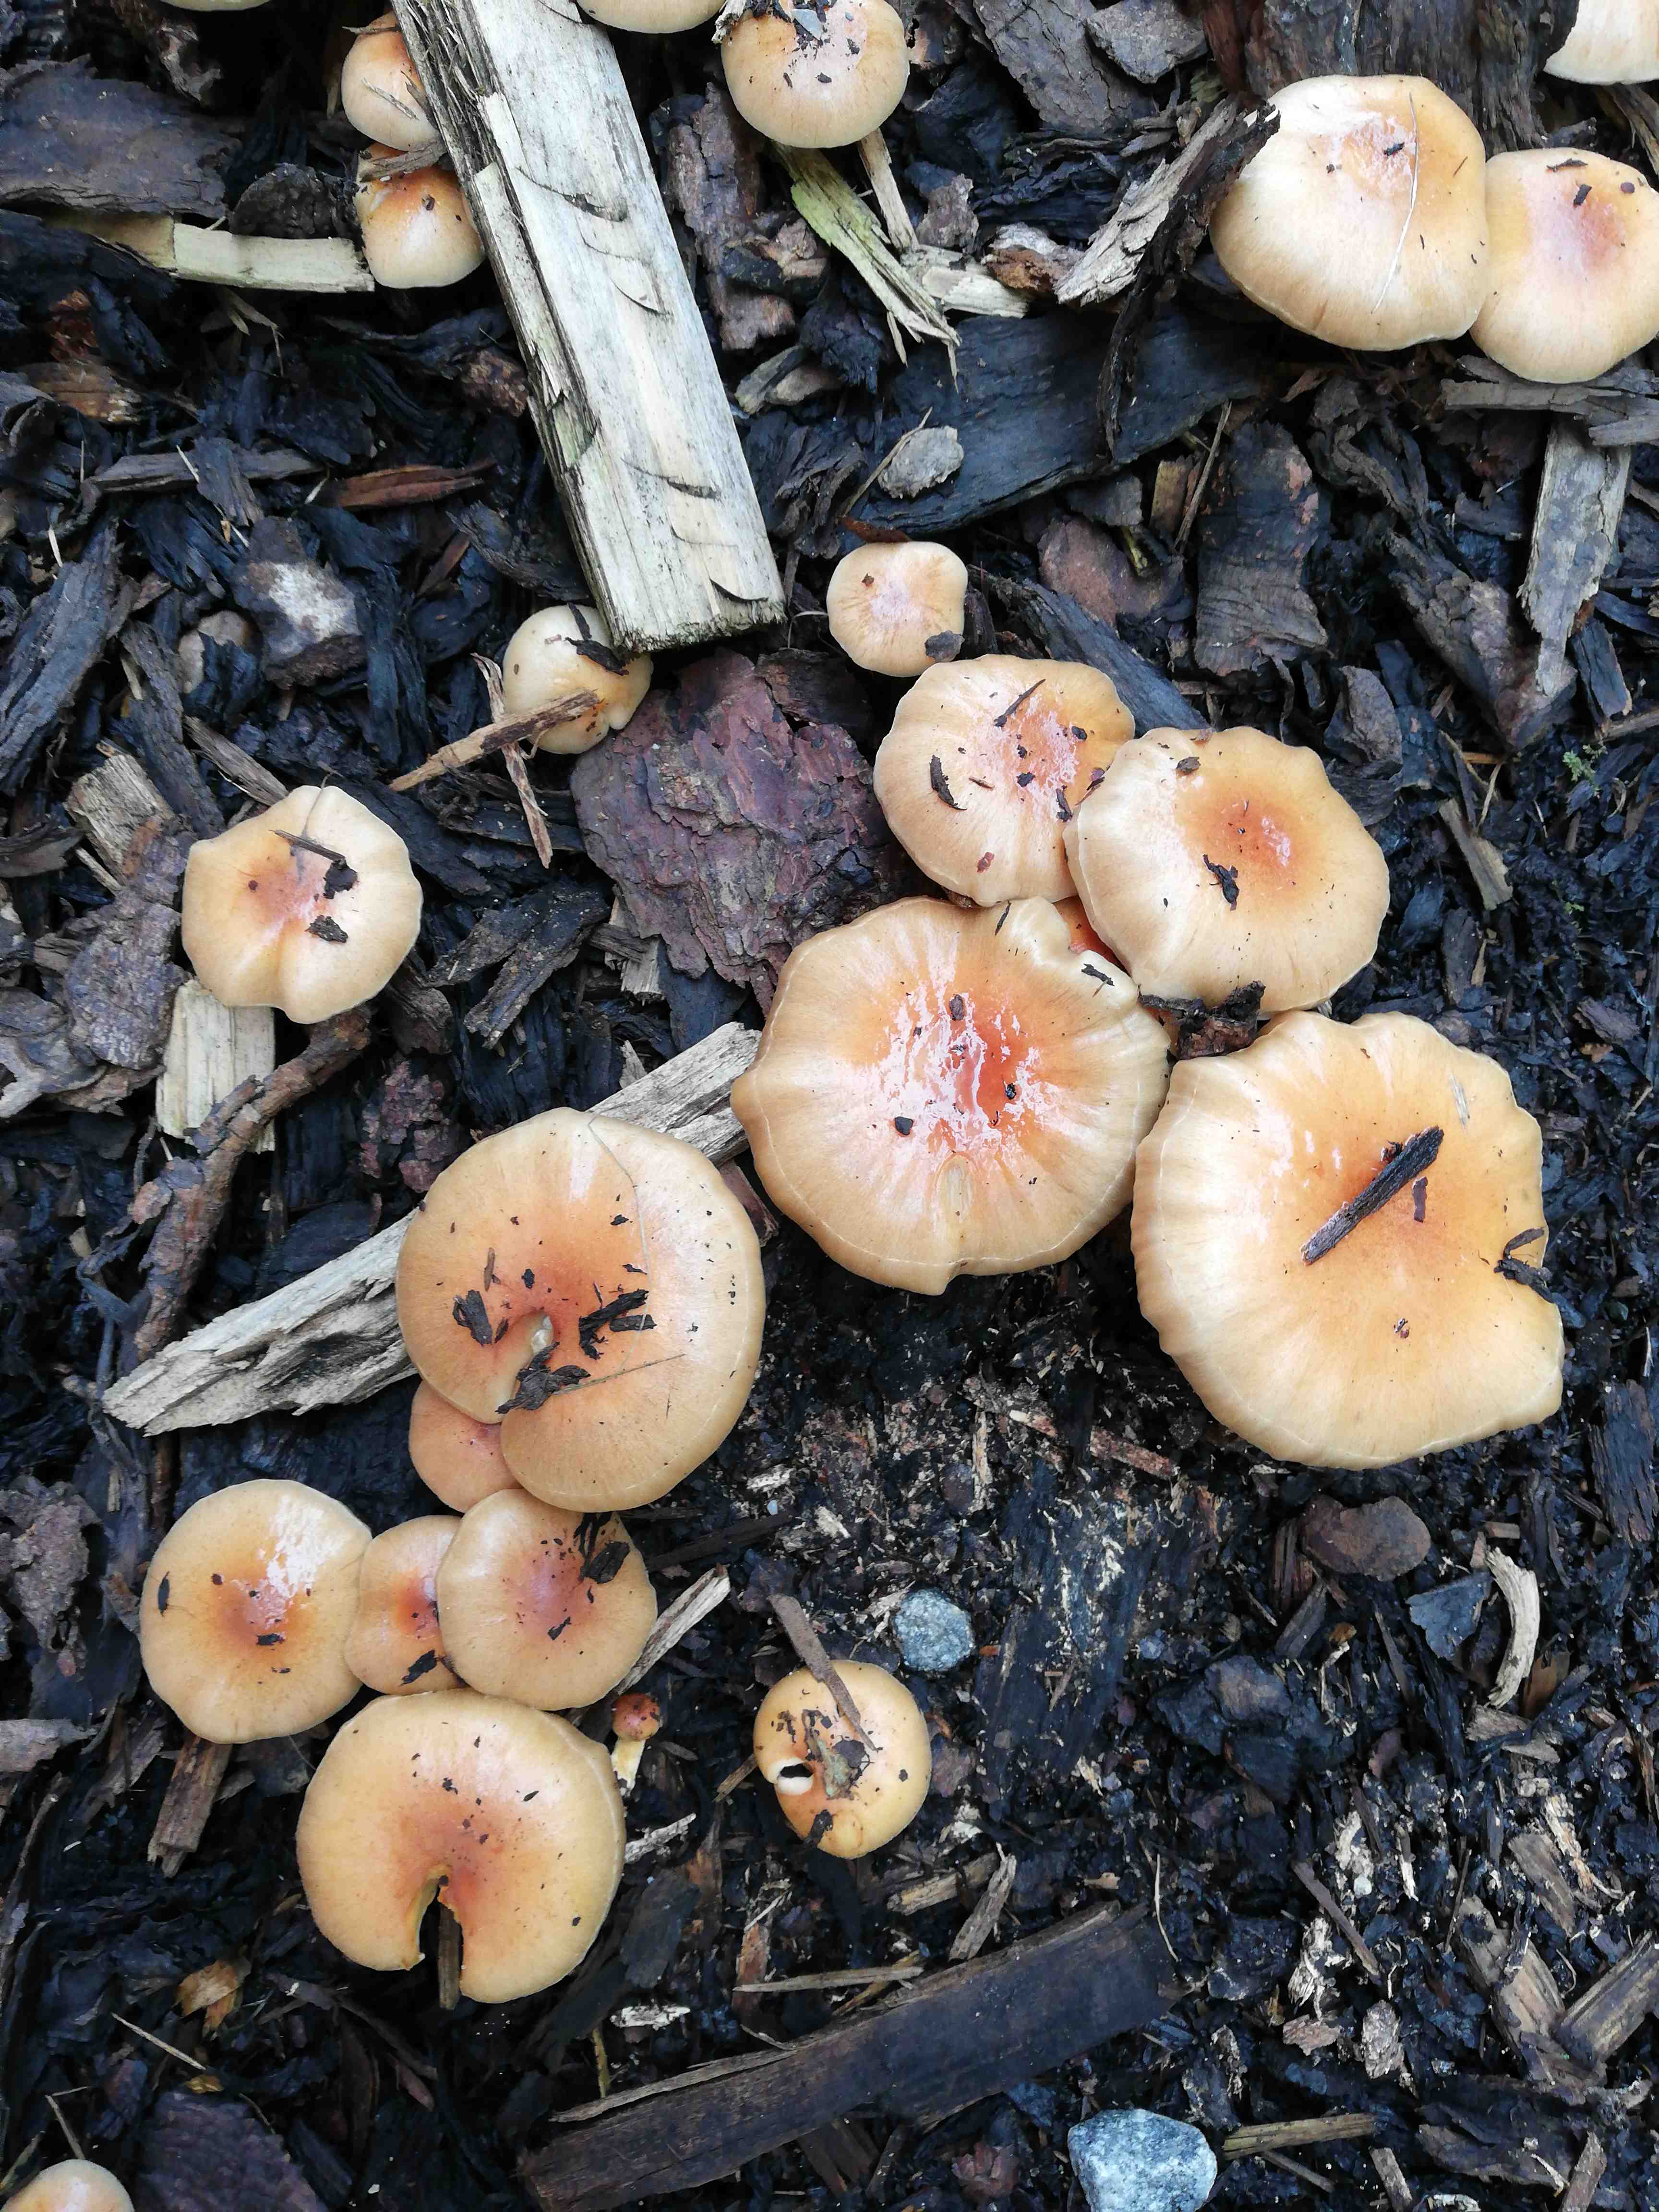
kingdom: Fungi
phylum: Basidiomycota
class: Agaricomycetes
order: Agaricales
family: Strophariaceae
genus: Pholiota
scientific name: Pholiota
